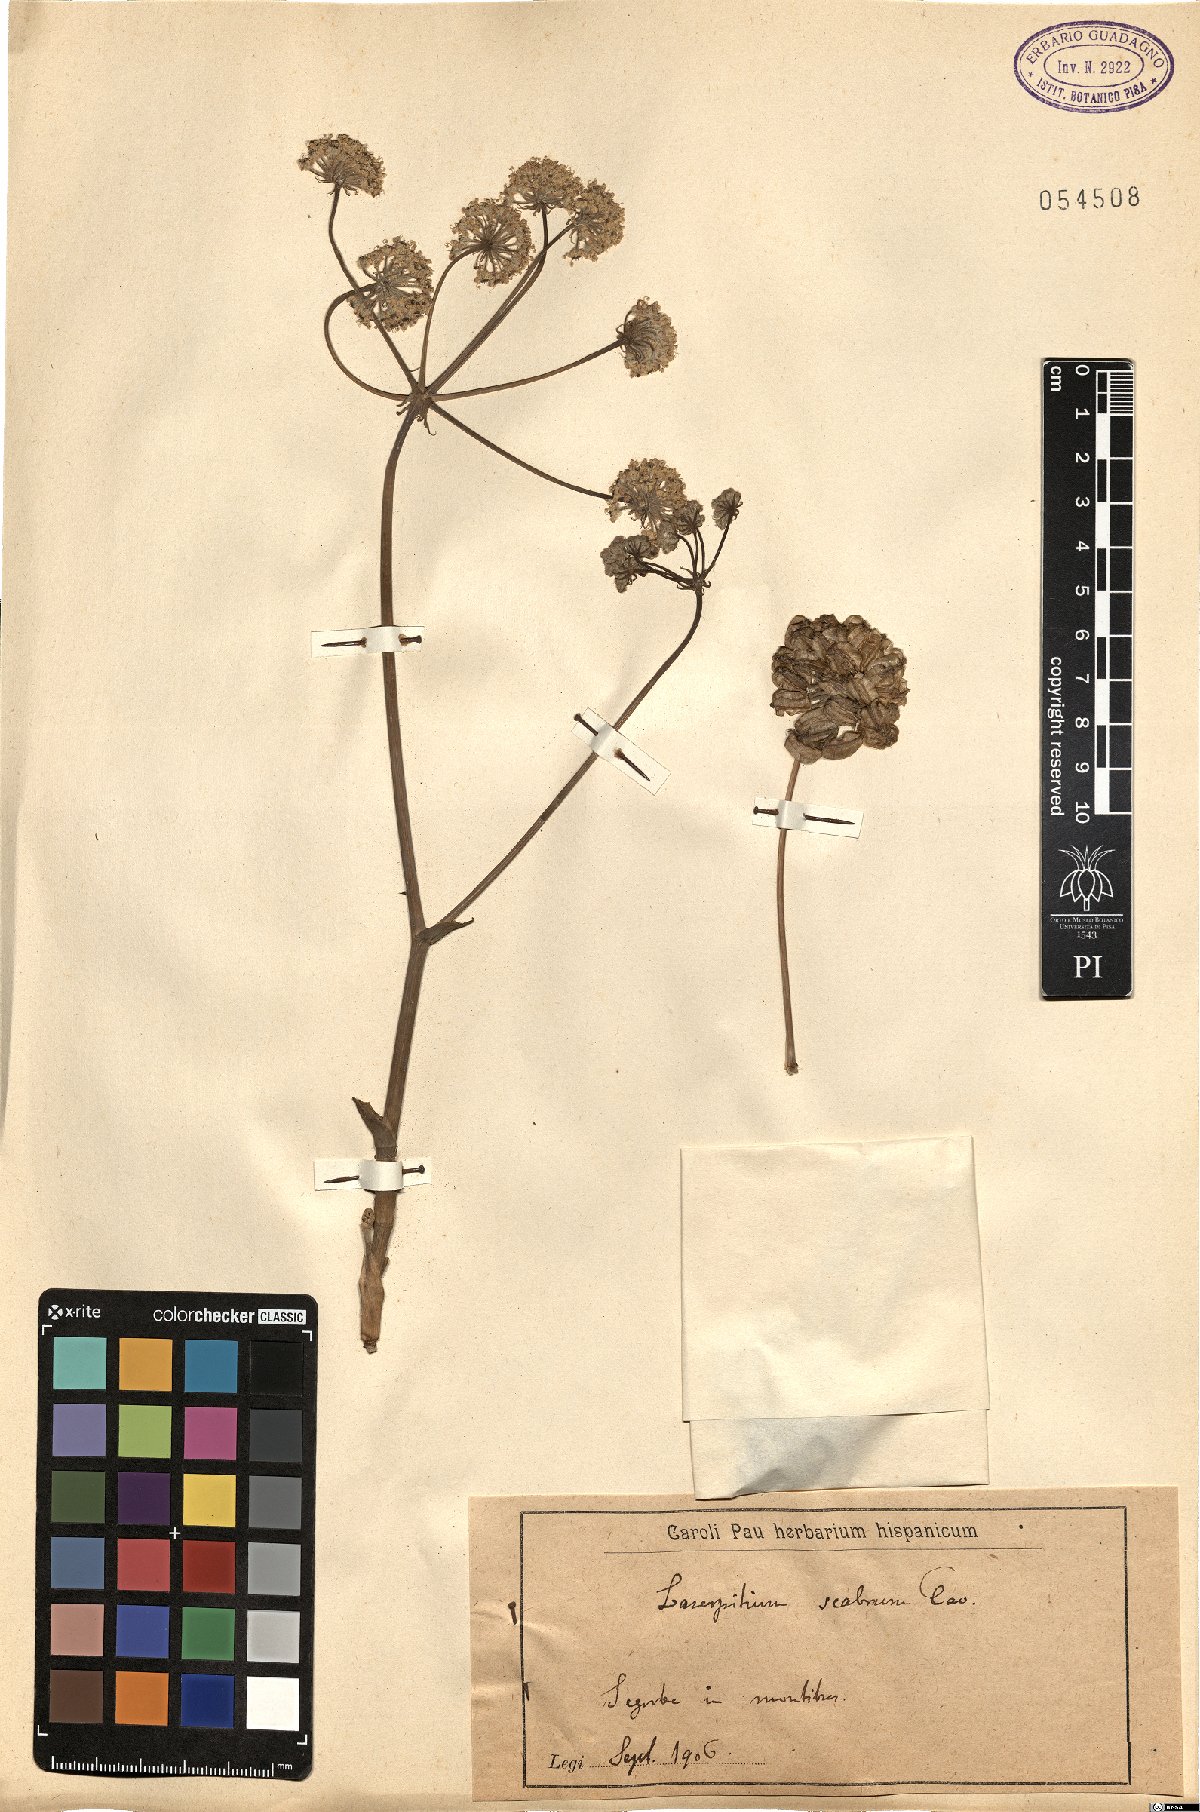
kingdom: Plantae
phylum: Tracheophyta
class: Magnoliopsida
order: Apiales
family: Apiaceae
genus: Thapsia
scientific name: Thapsia scabra
